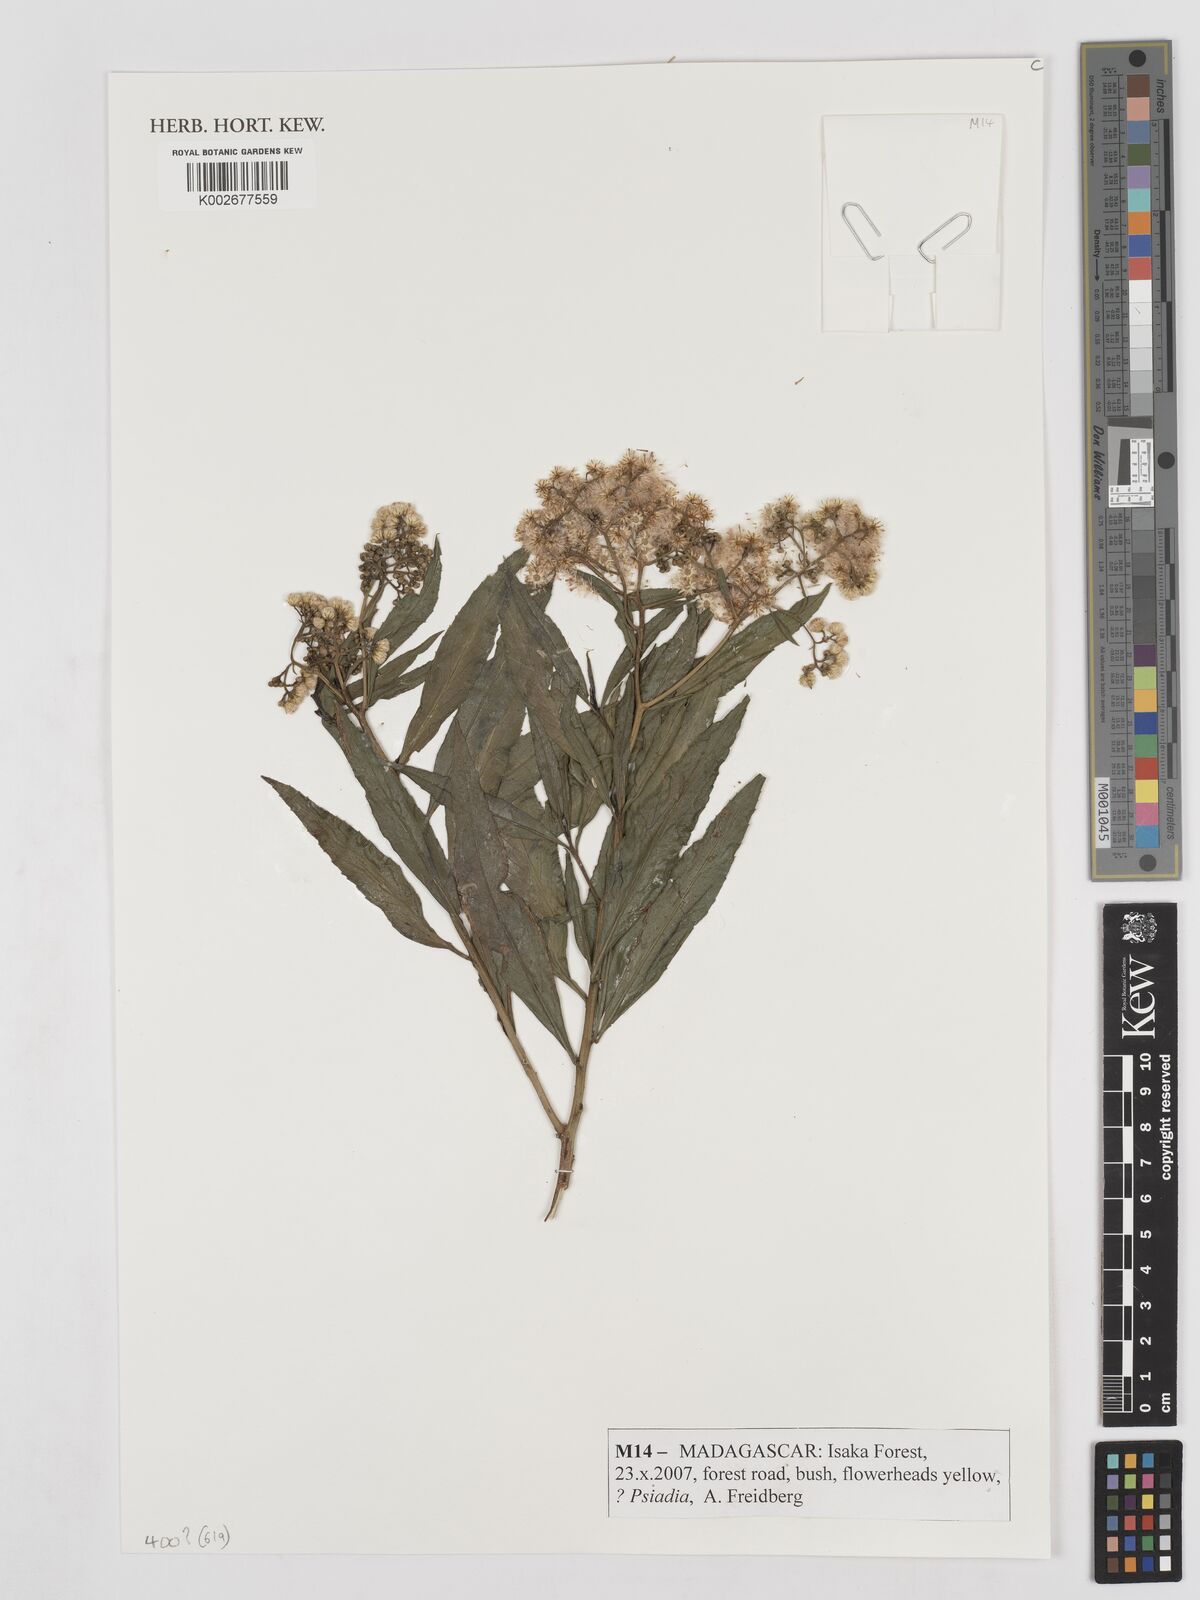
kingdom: Plantae
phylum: Tracheophyta
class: Magnoliopsida
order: Asterales
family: Asteraceae
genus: Psiadia
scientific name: Psiadia
